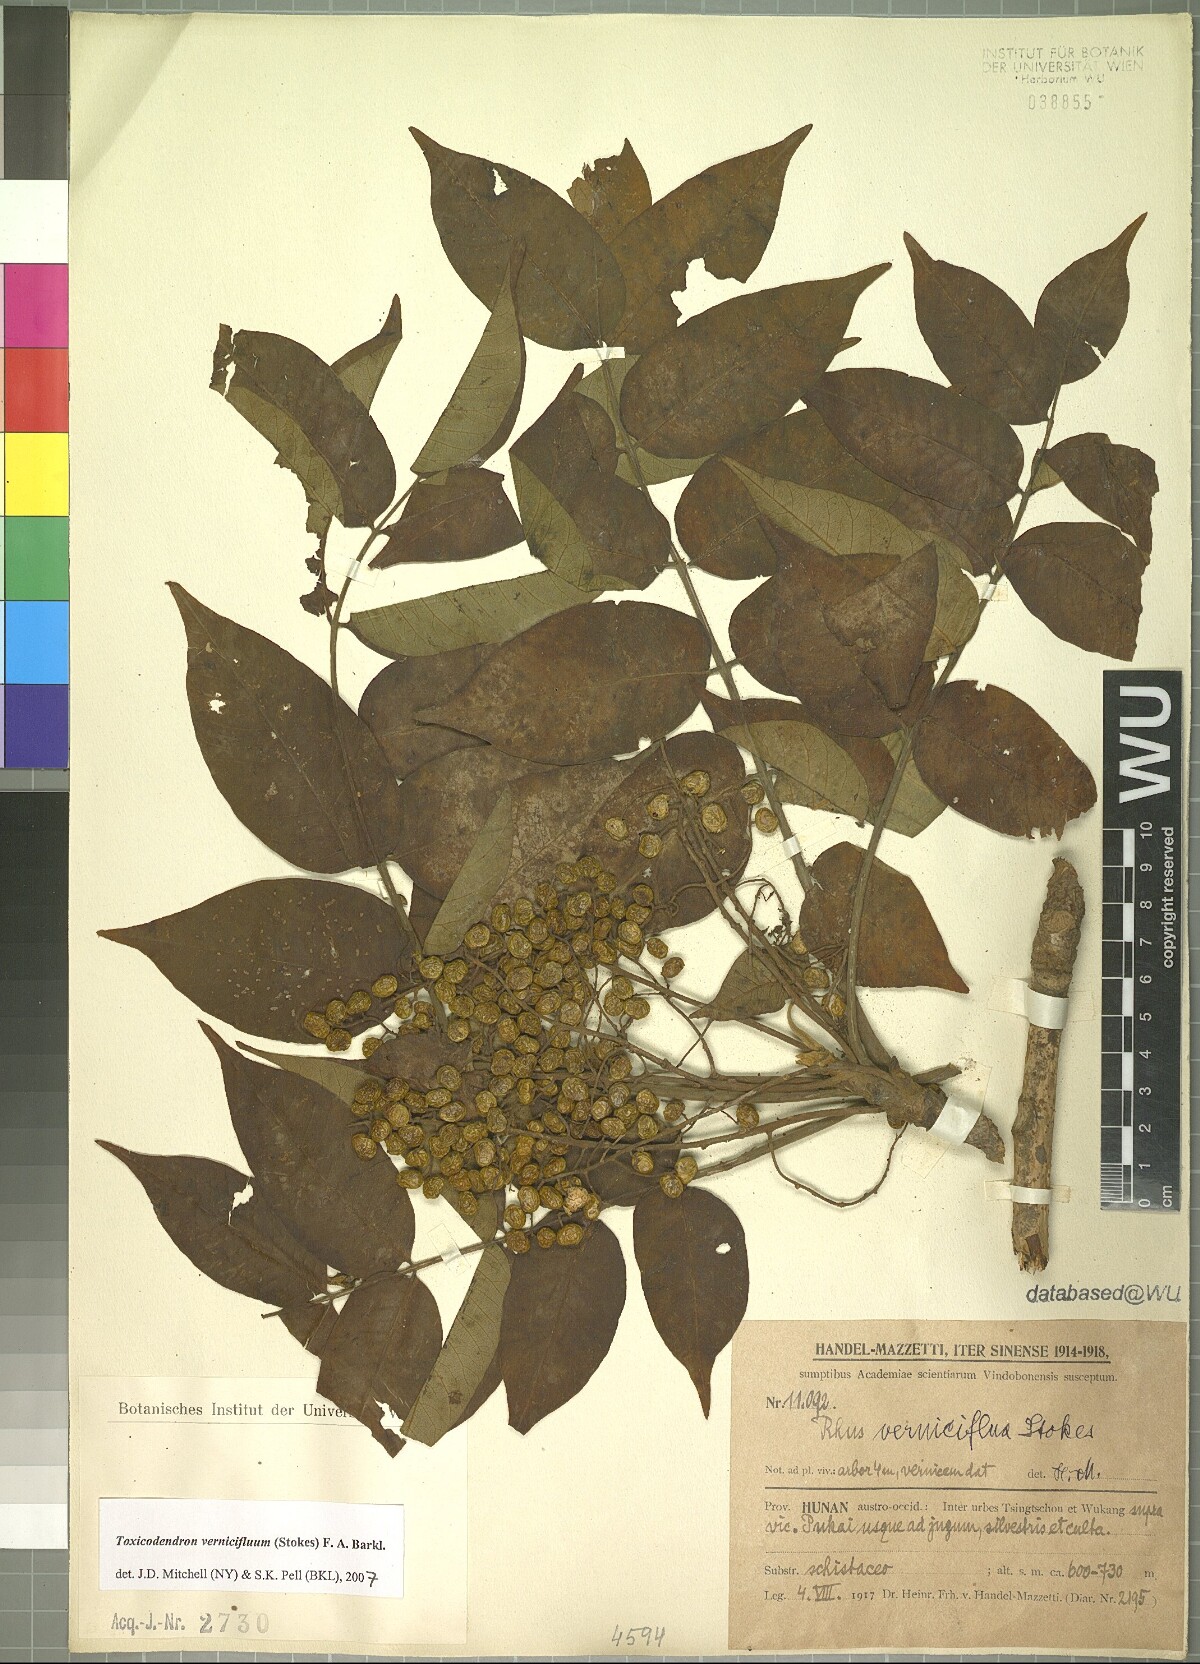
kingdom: Plantae
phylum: Tracheophyta
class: Magnoliopsida
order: Sapindales
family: Anacardiaceae
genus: Toxicodendron
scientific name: Toxicodendron vernicifluum
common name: Japanese lacquertree
